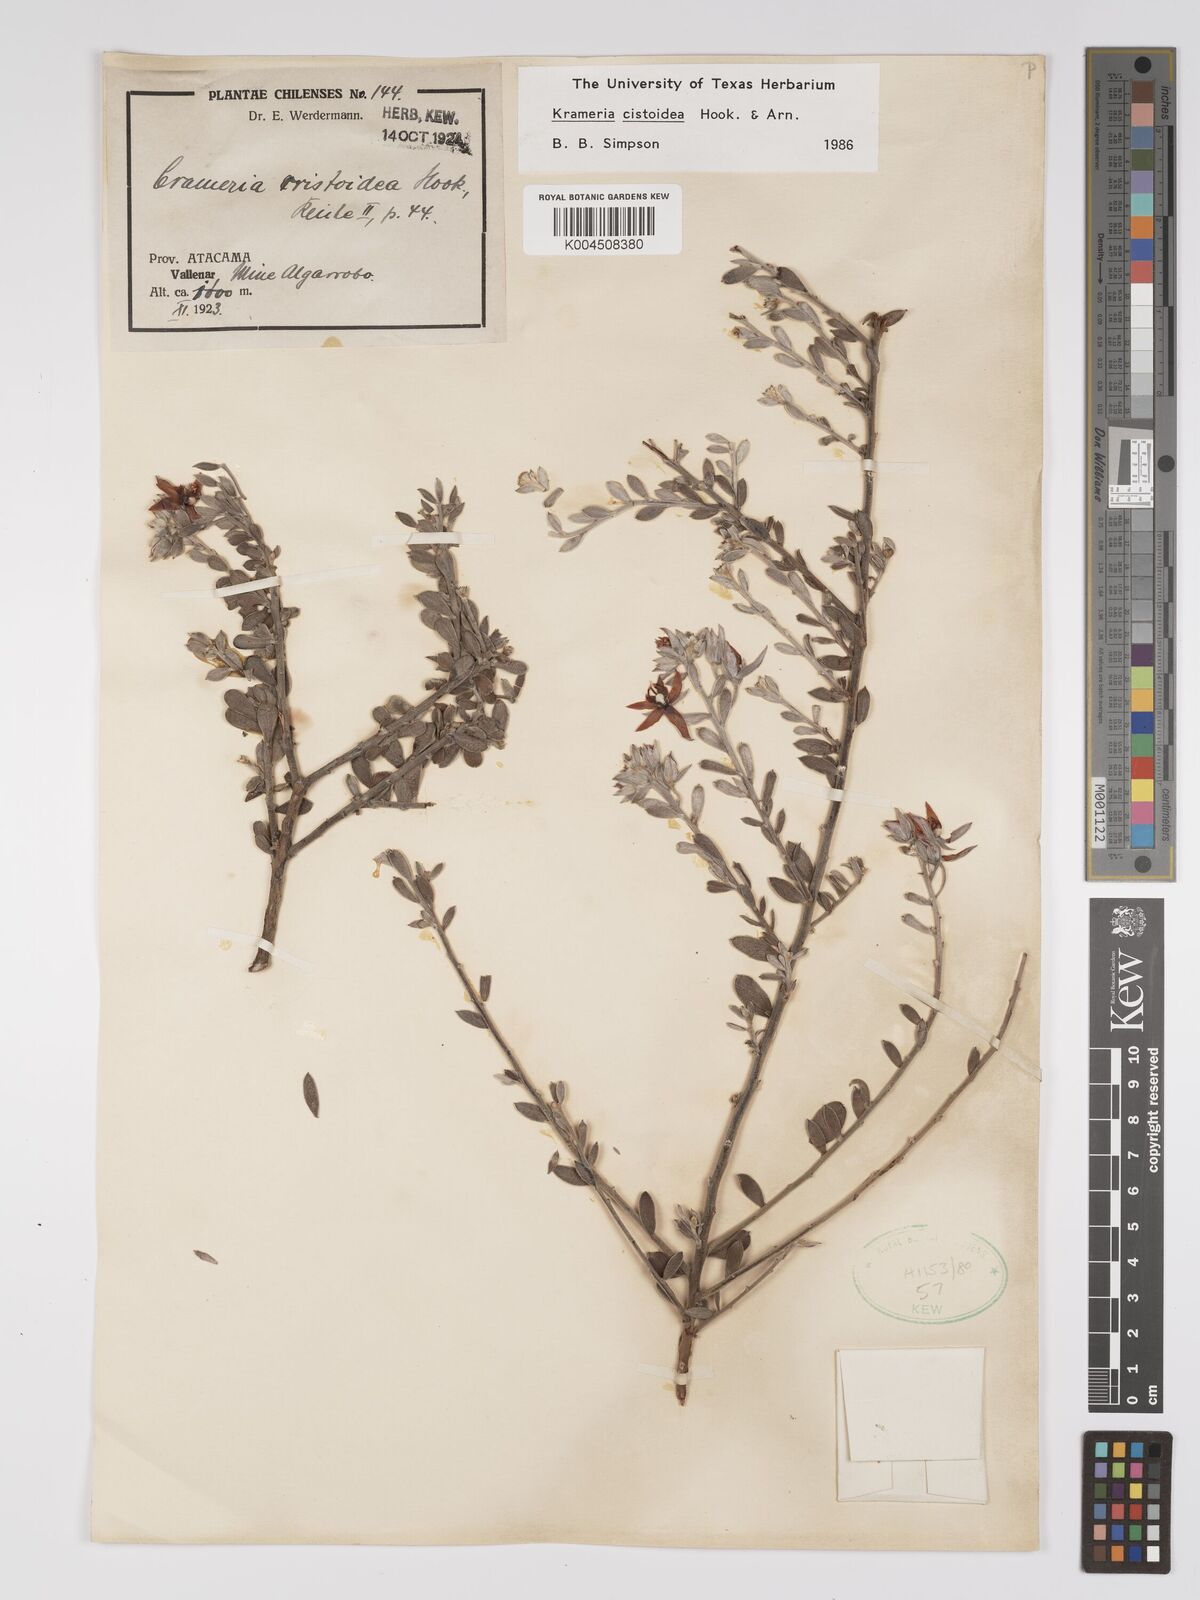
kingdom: Plantae
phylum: Tracheophyta
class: Magnoliopsida
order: Zygophyllales
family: Krameriaceae
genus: Krameria
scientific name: Krameria cistoidea
